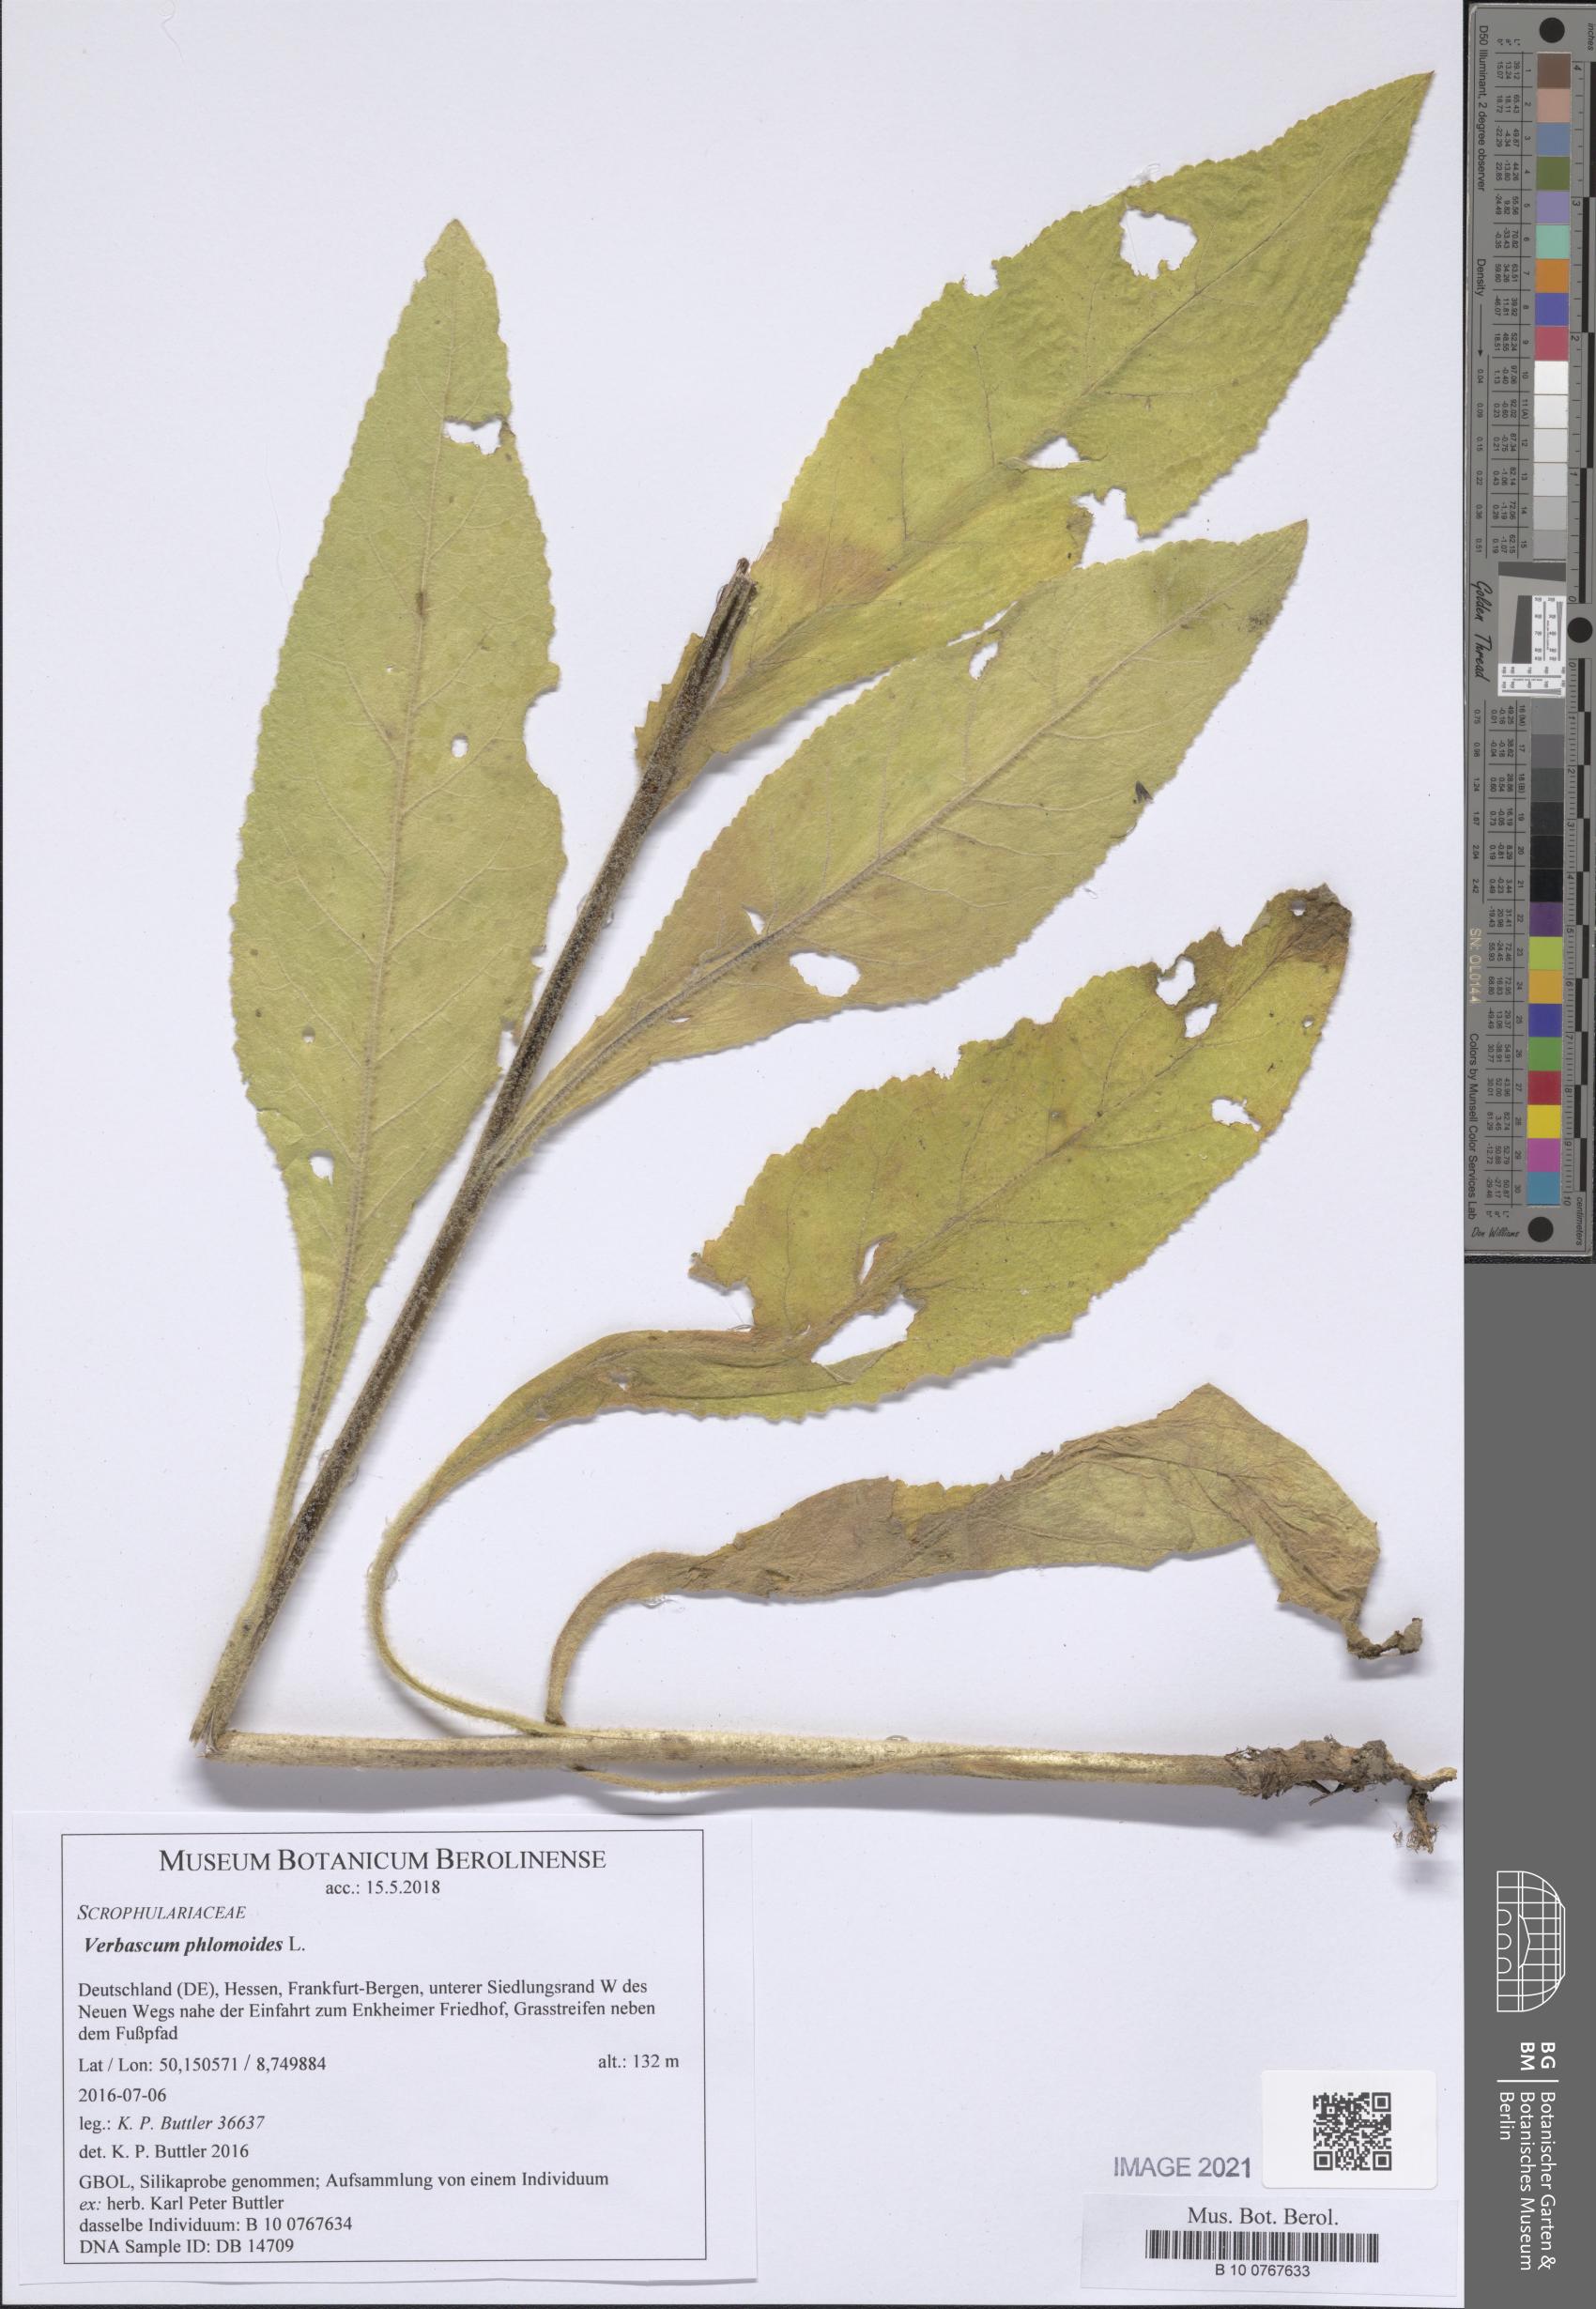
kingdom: Plantae
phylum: Tracheophyta
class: Magnoliopsida
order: Lamiales
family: Scrophulariaceae
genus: Verbascum
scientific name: Verbascum phlomoides
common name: Orange mullein
